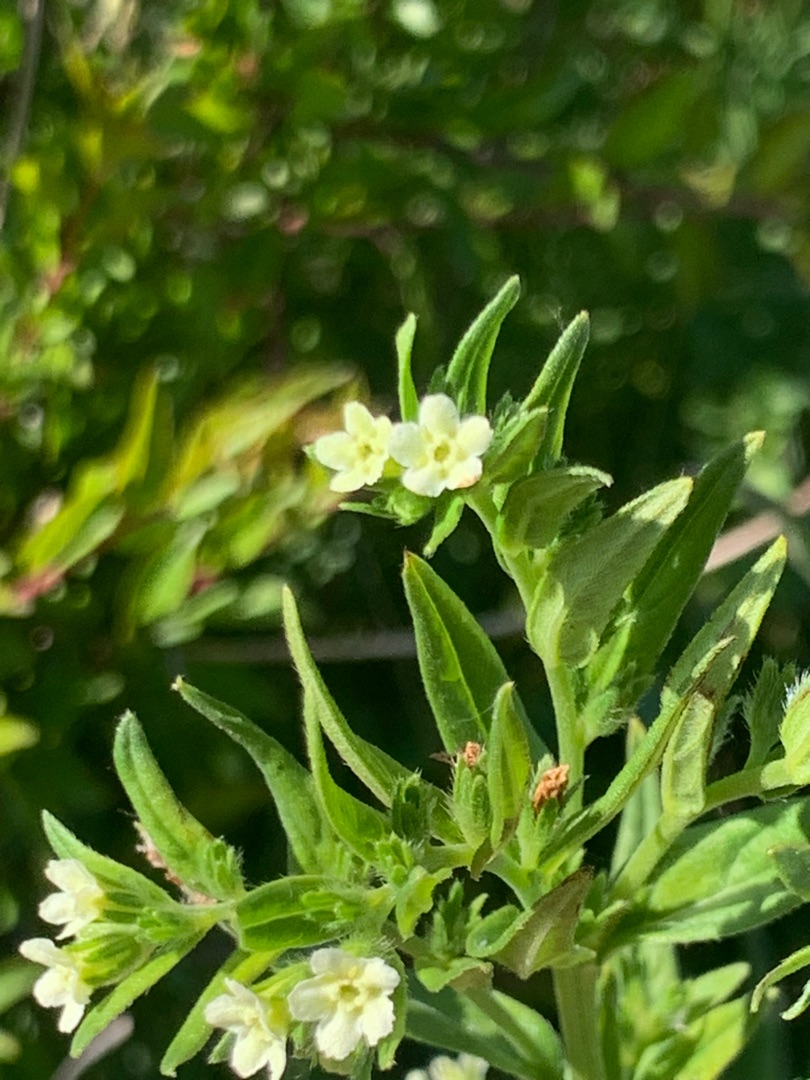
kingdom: Plantae
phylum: Tracheophyta
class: Magnoliopsida
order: Boraginales
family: Boraginaceae
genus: Lithospermum
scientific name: Lithospermum officinale
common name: Læge-stenfrø
